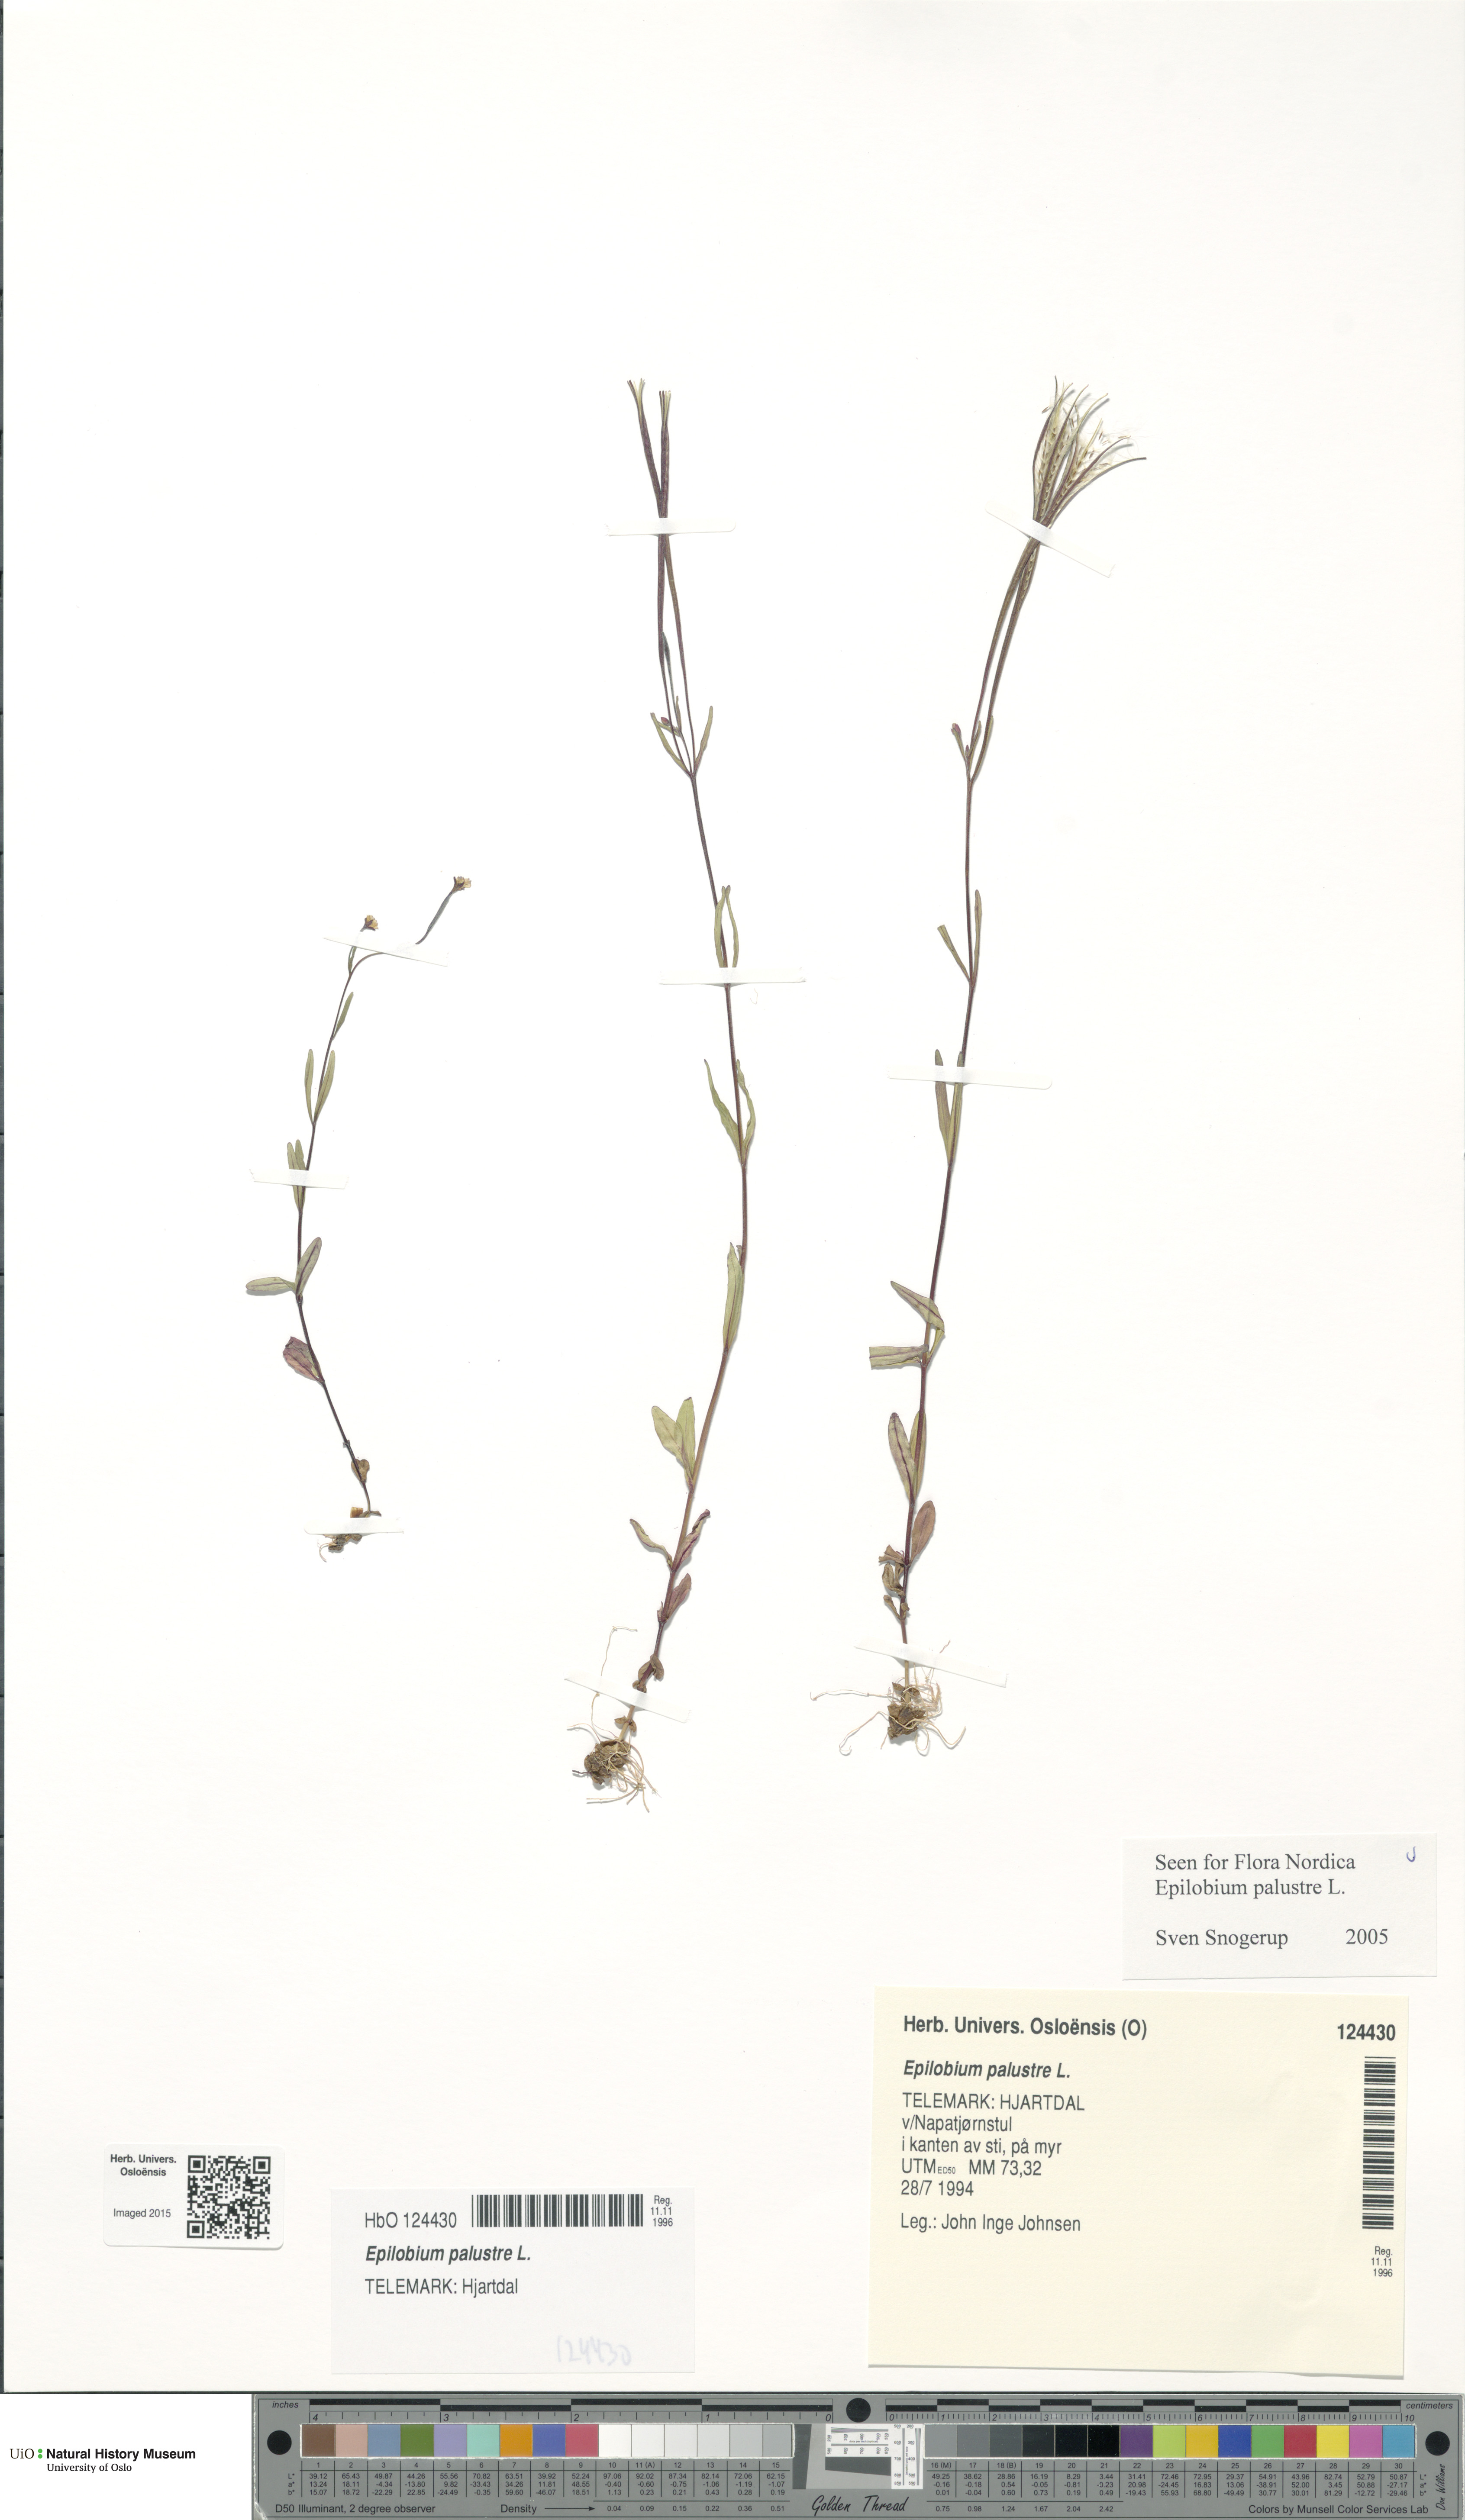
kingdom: Plantae
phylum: Tracheophyta
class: Magnoliopsida
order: Myrtales
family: Onagraceae
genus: Epilobium
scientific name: Epilobium palustre
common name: Marsh willowherb
